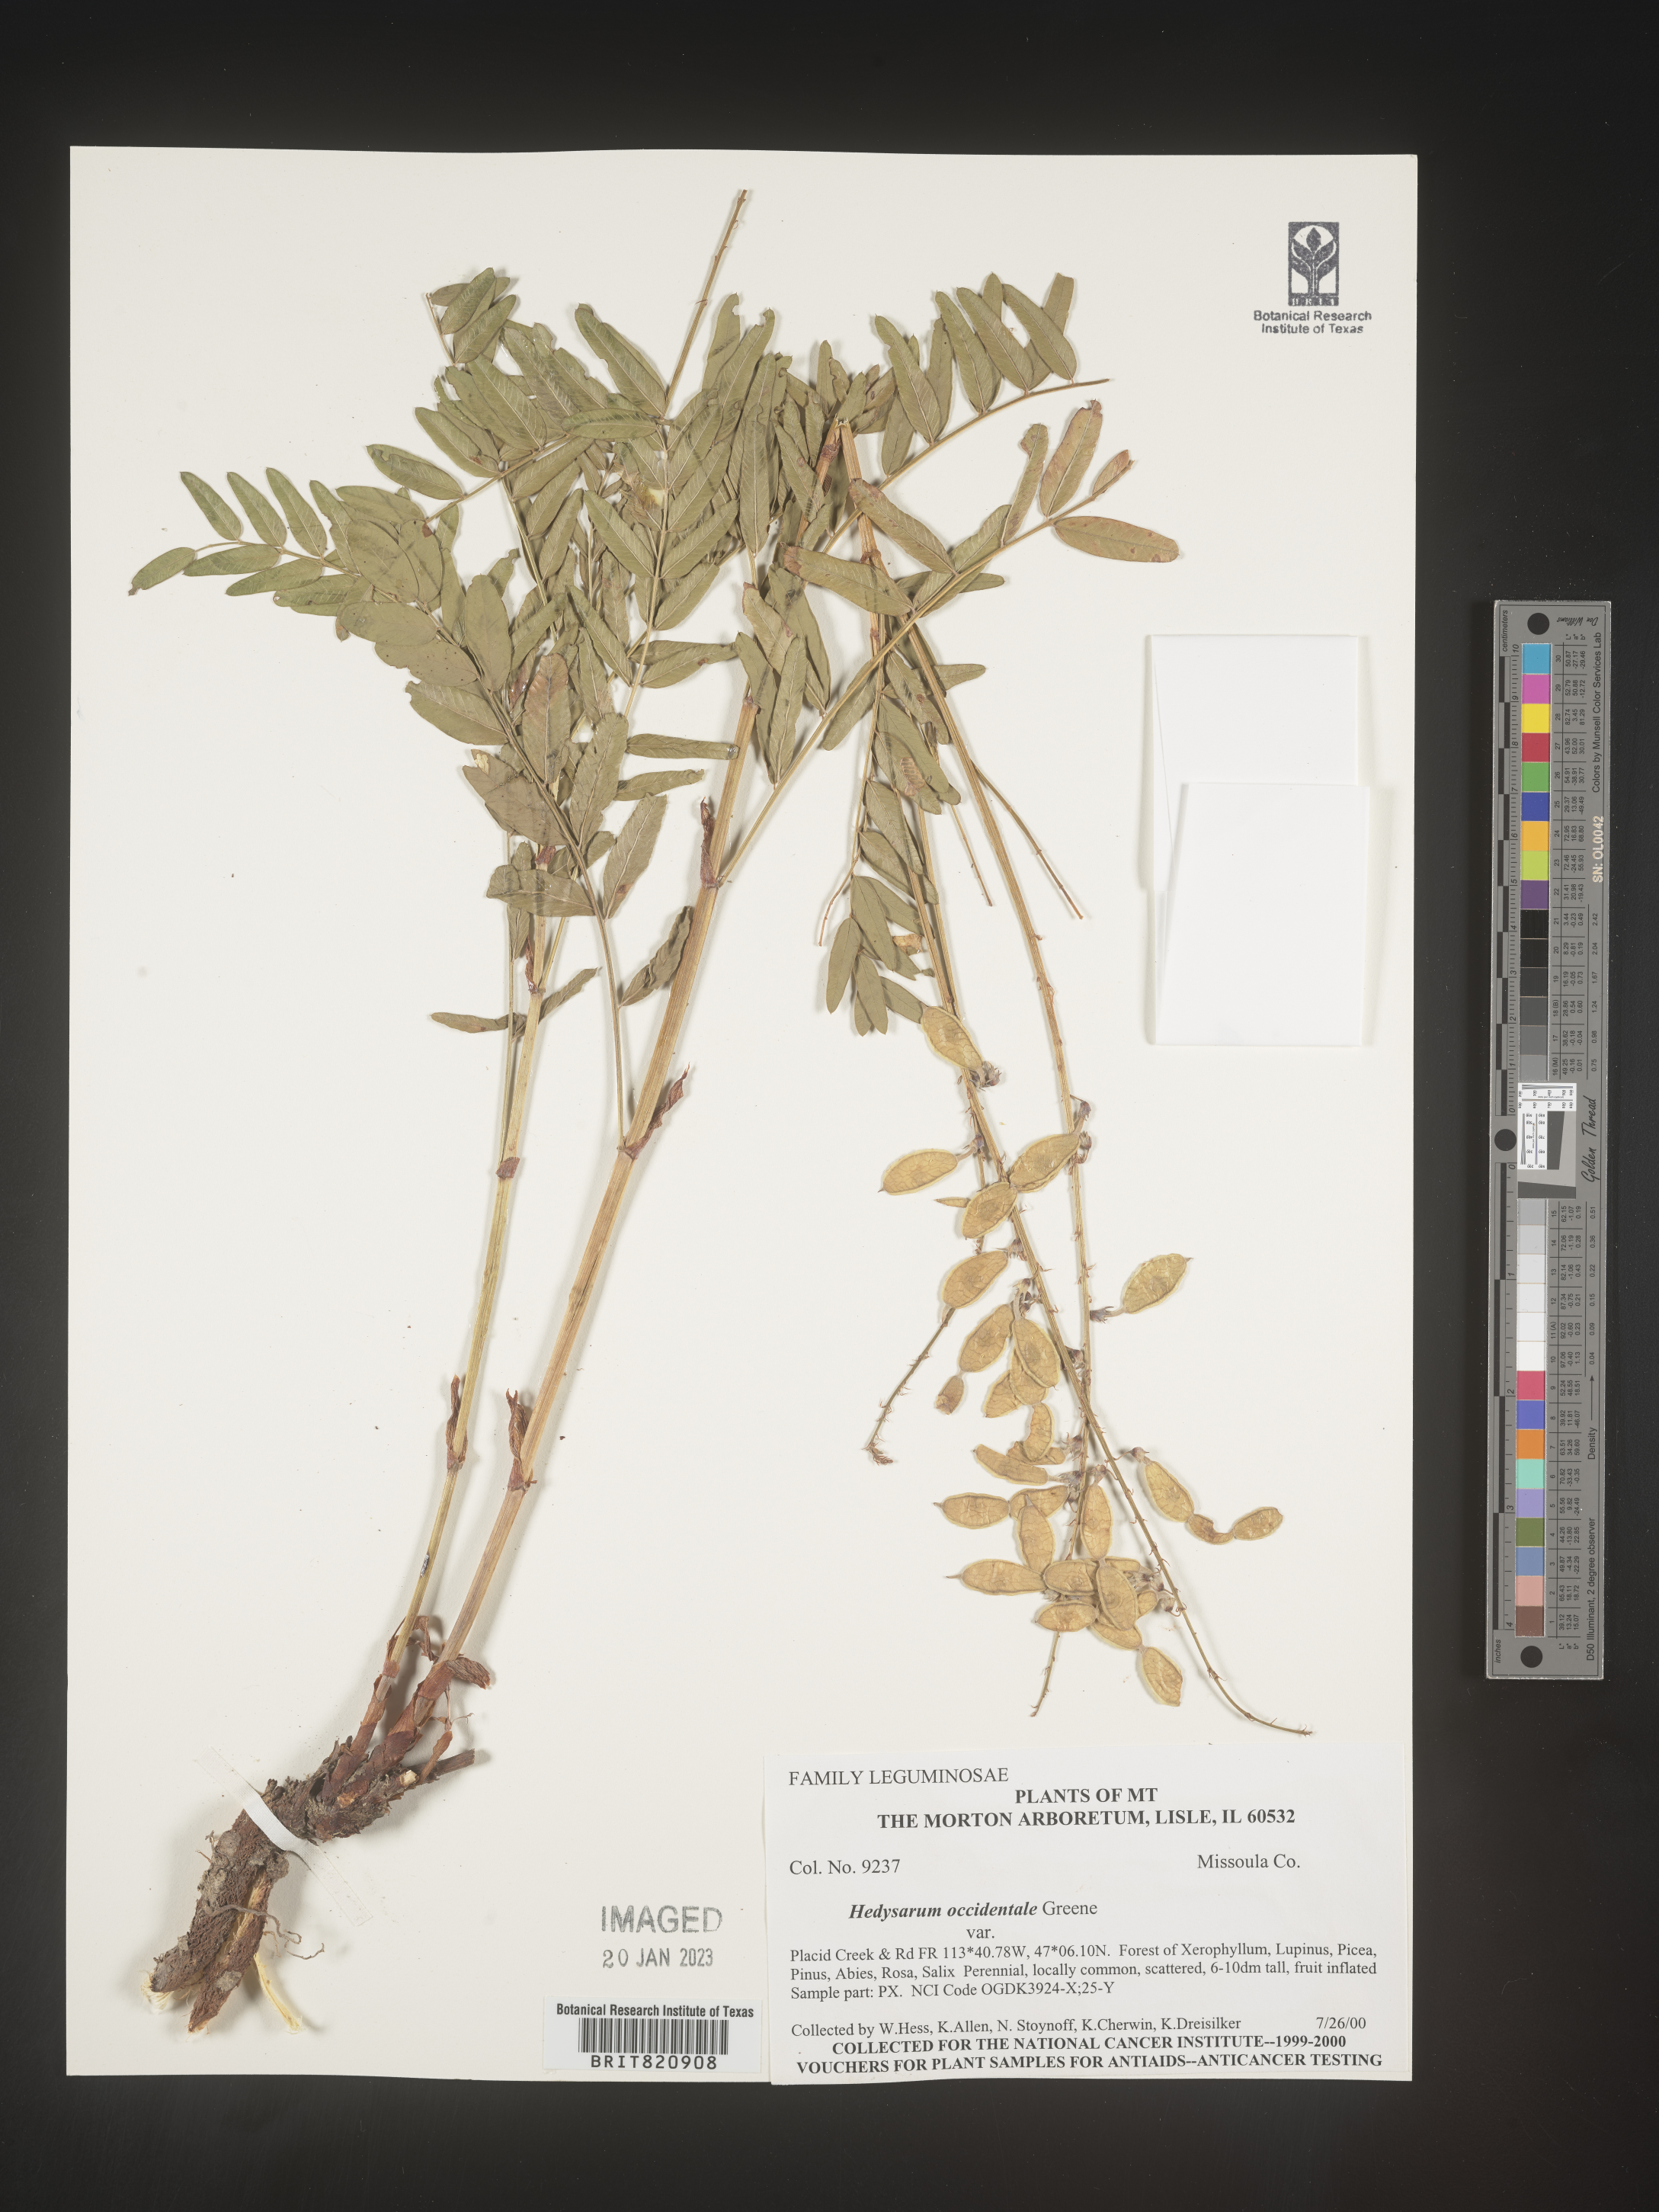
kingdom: Plantae
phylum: Tracheophyta
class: Magnoliopsida
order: Fabales
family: Fabaceae
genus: Hedysarum
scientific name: Hedysarum occidentale
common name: Western hedysarum
